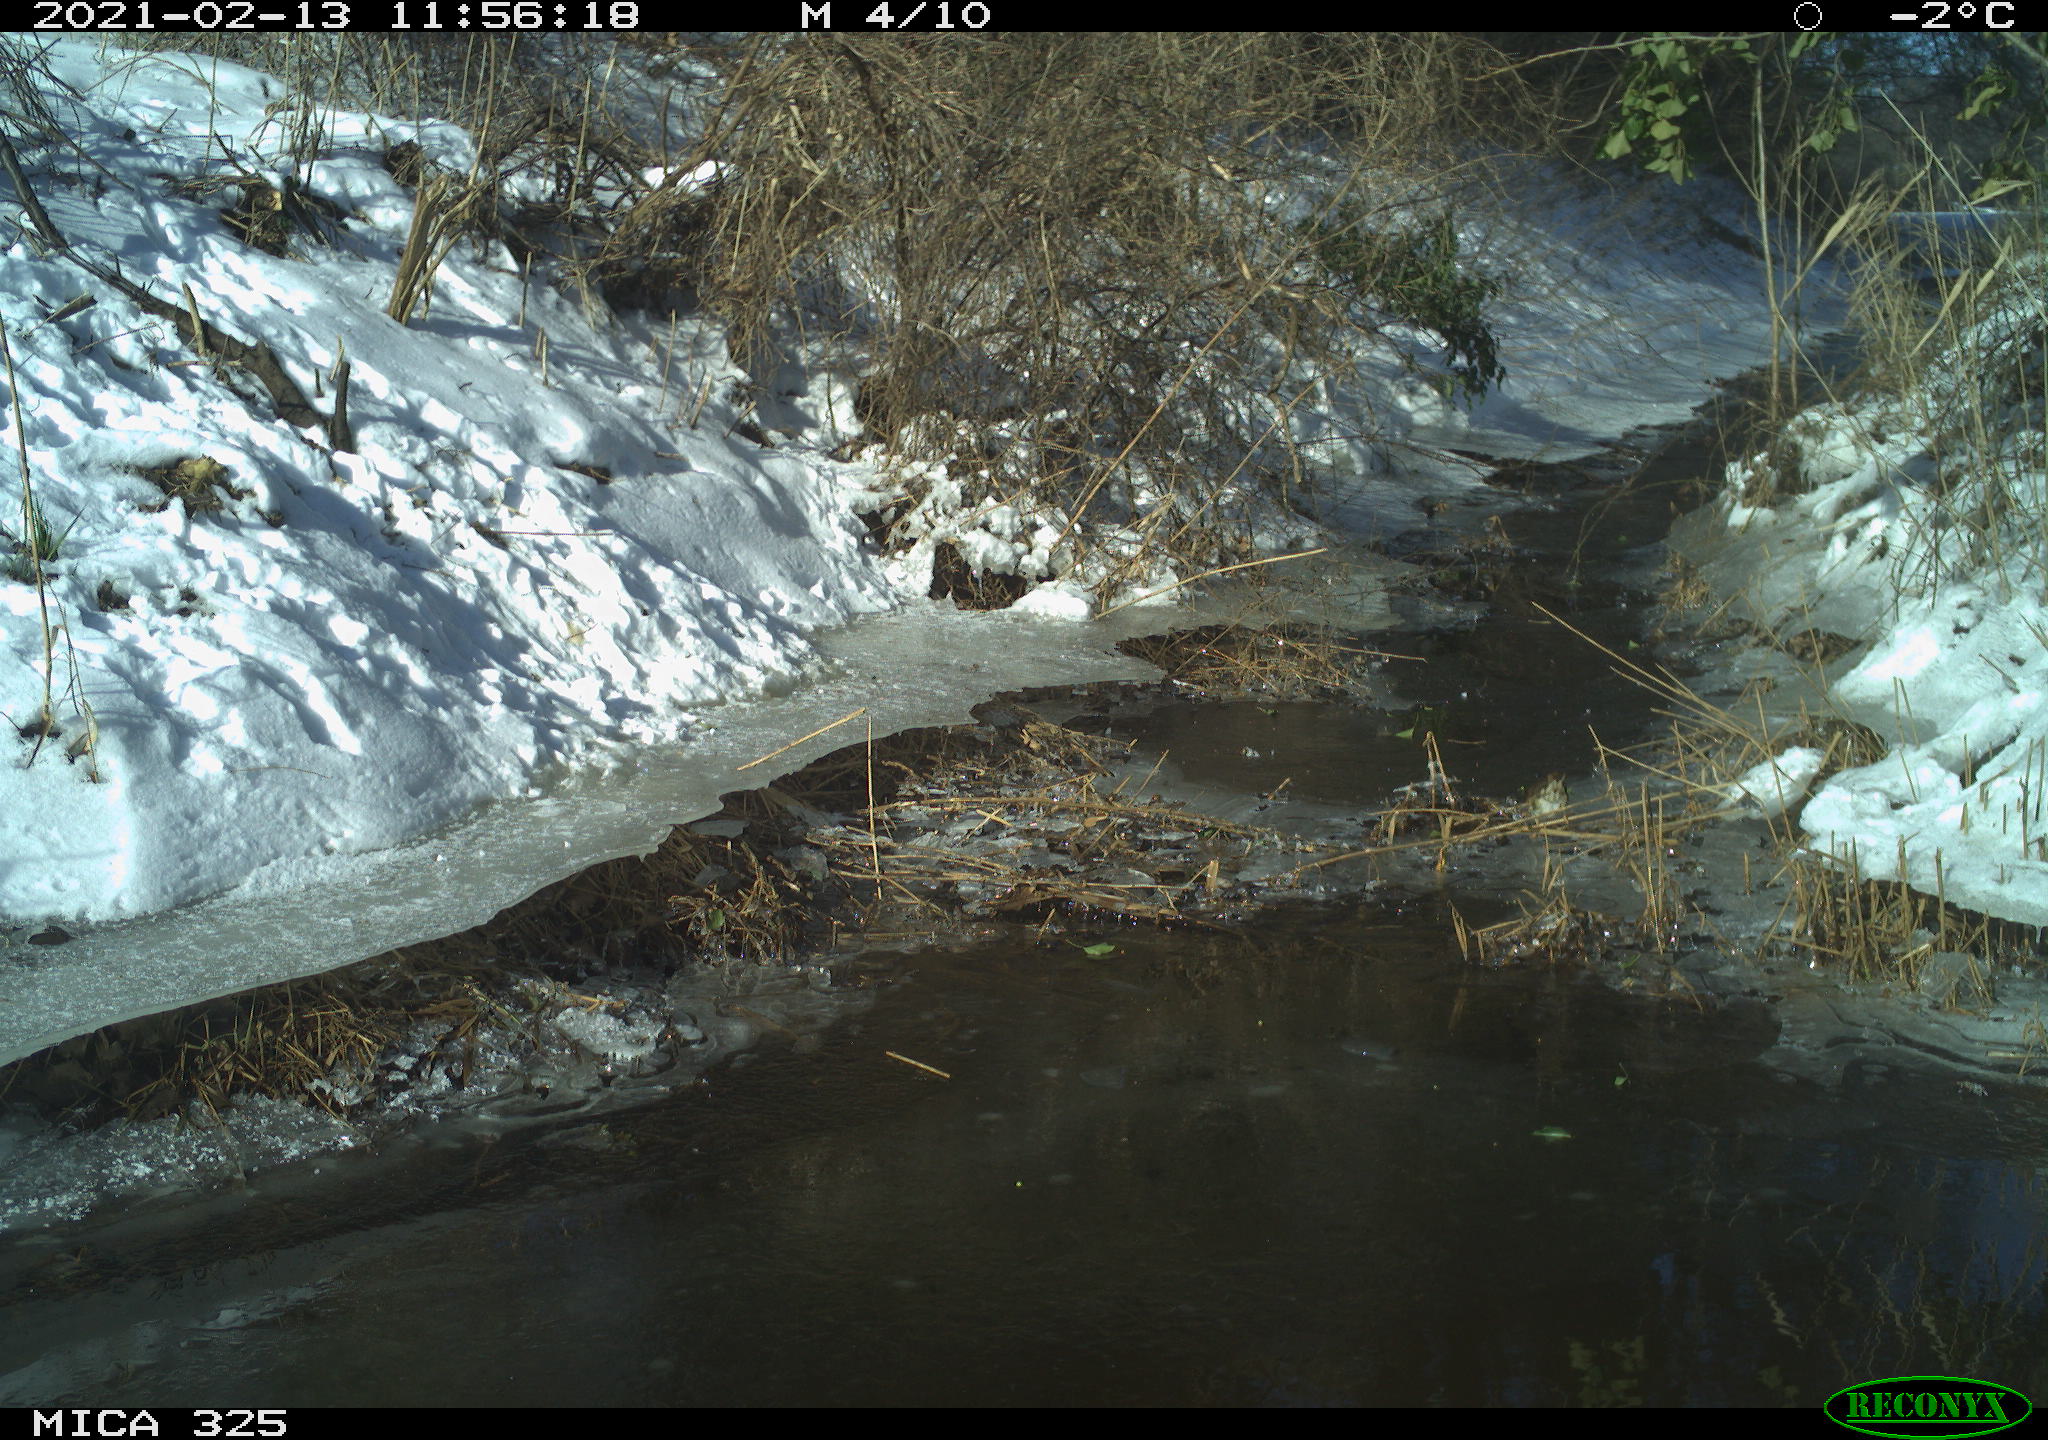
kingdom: Animalia
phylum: Chordata
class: Aves
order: Passeriformes
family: Turdidae
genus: Turdus
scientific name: Turdus philomelos
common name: Song thrush
